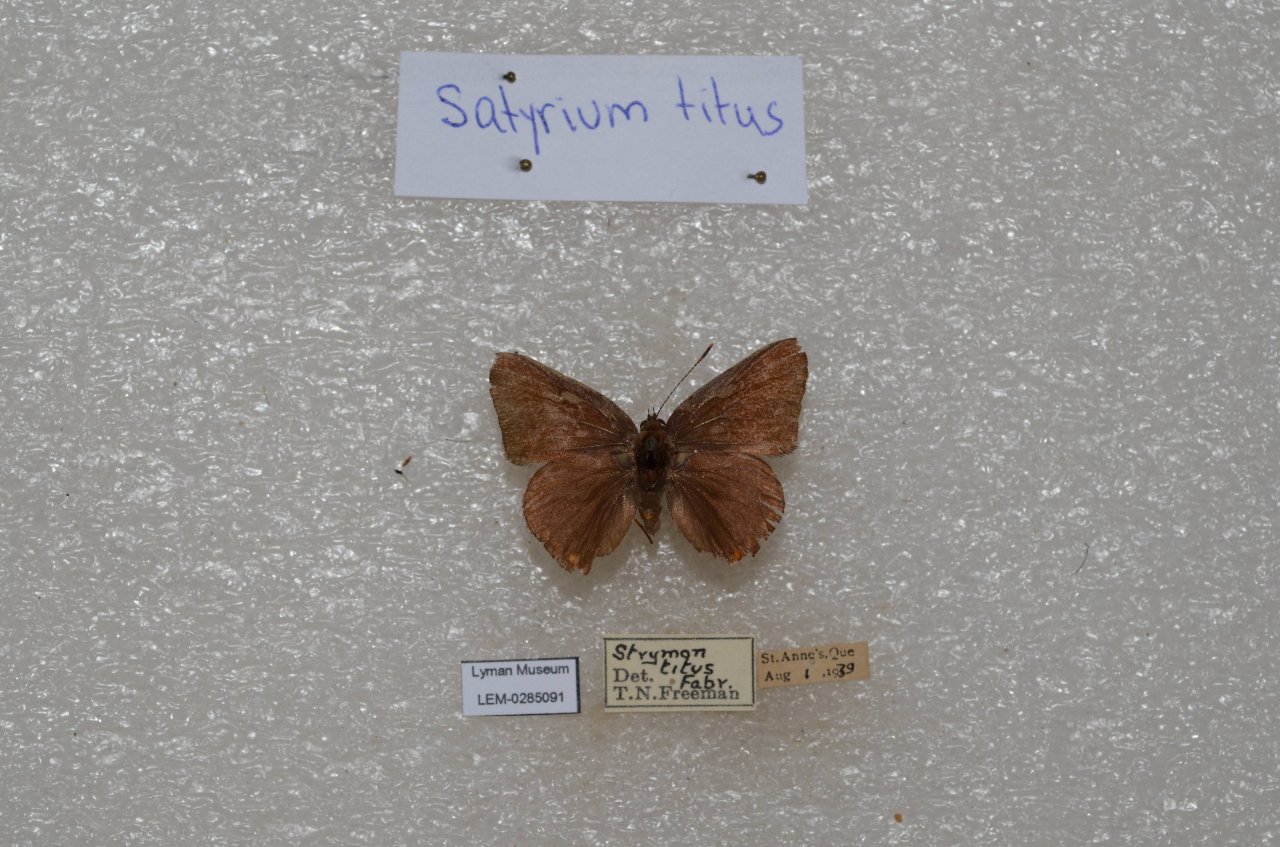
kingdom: Animalia
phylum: Arthropoda
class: Insecta
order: Lepidoptera
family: Lycaenidae
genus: Harkenclenus
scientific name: Harkenclenus titus
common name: Coral Hairstreak
